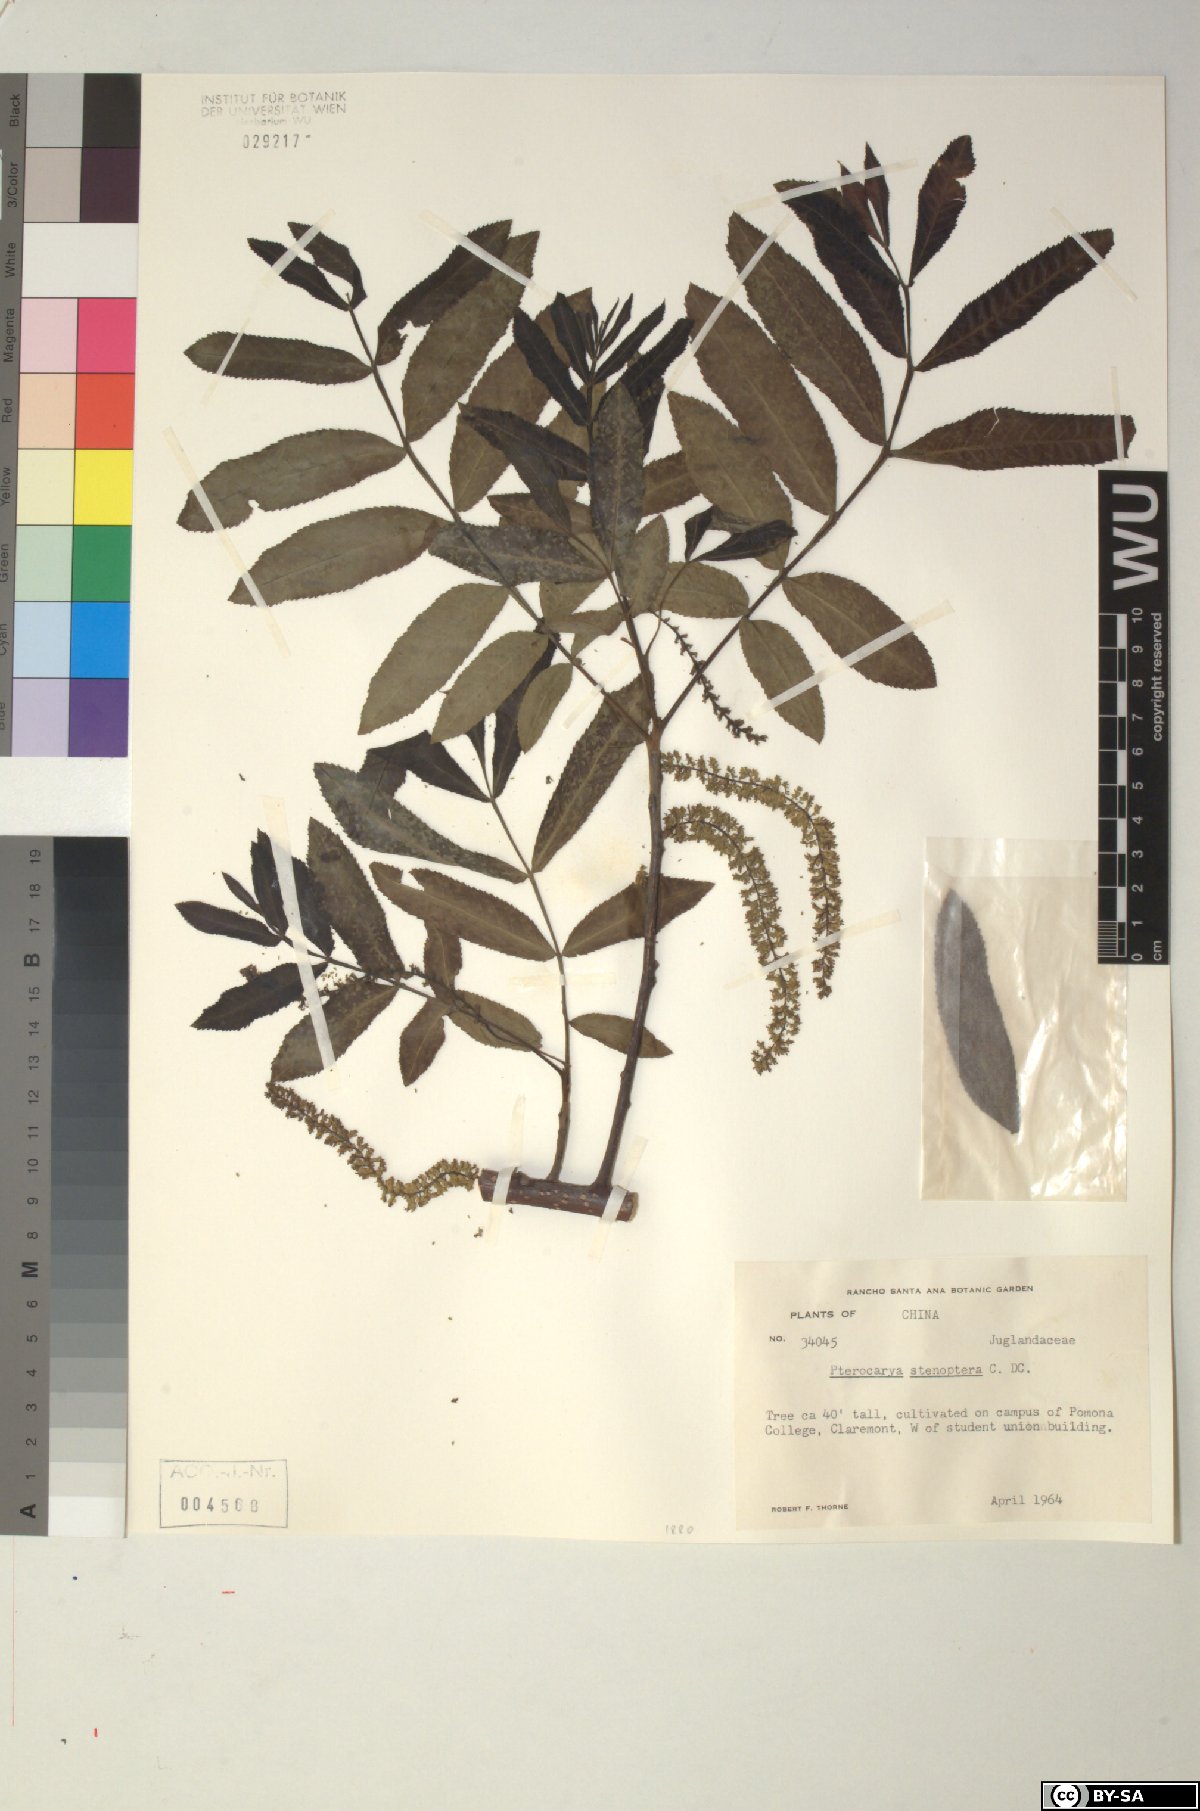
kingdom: Plantae
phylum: Tracheophyta
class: Magnoliopsida
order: Fagales
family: Juglandaceae
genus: Pterocarya
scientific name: Pterocarya stenoptera
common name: Chinese wingnut
